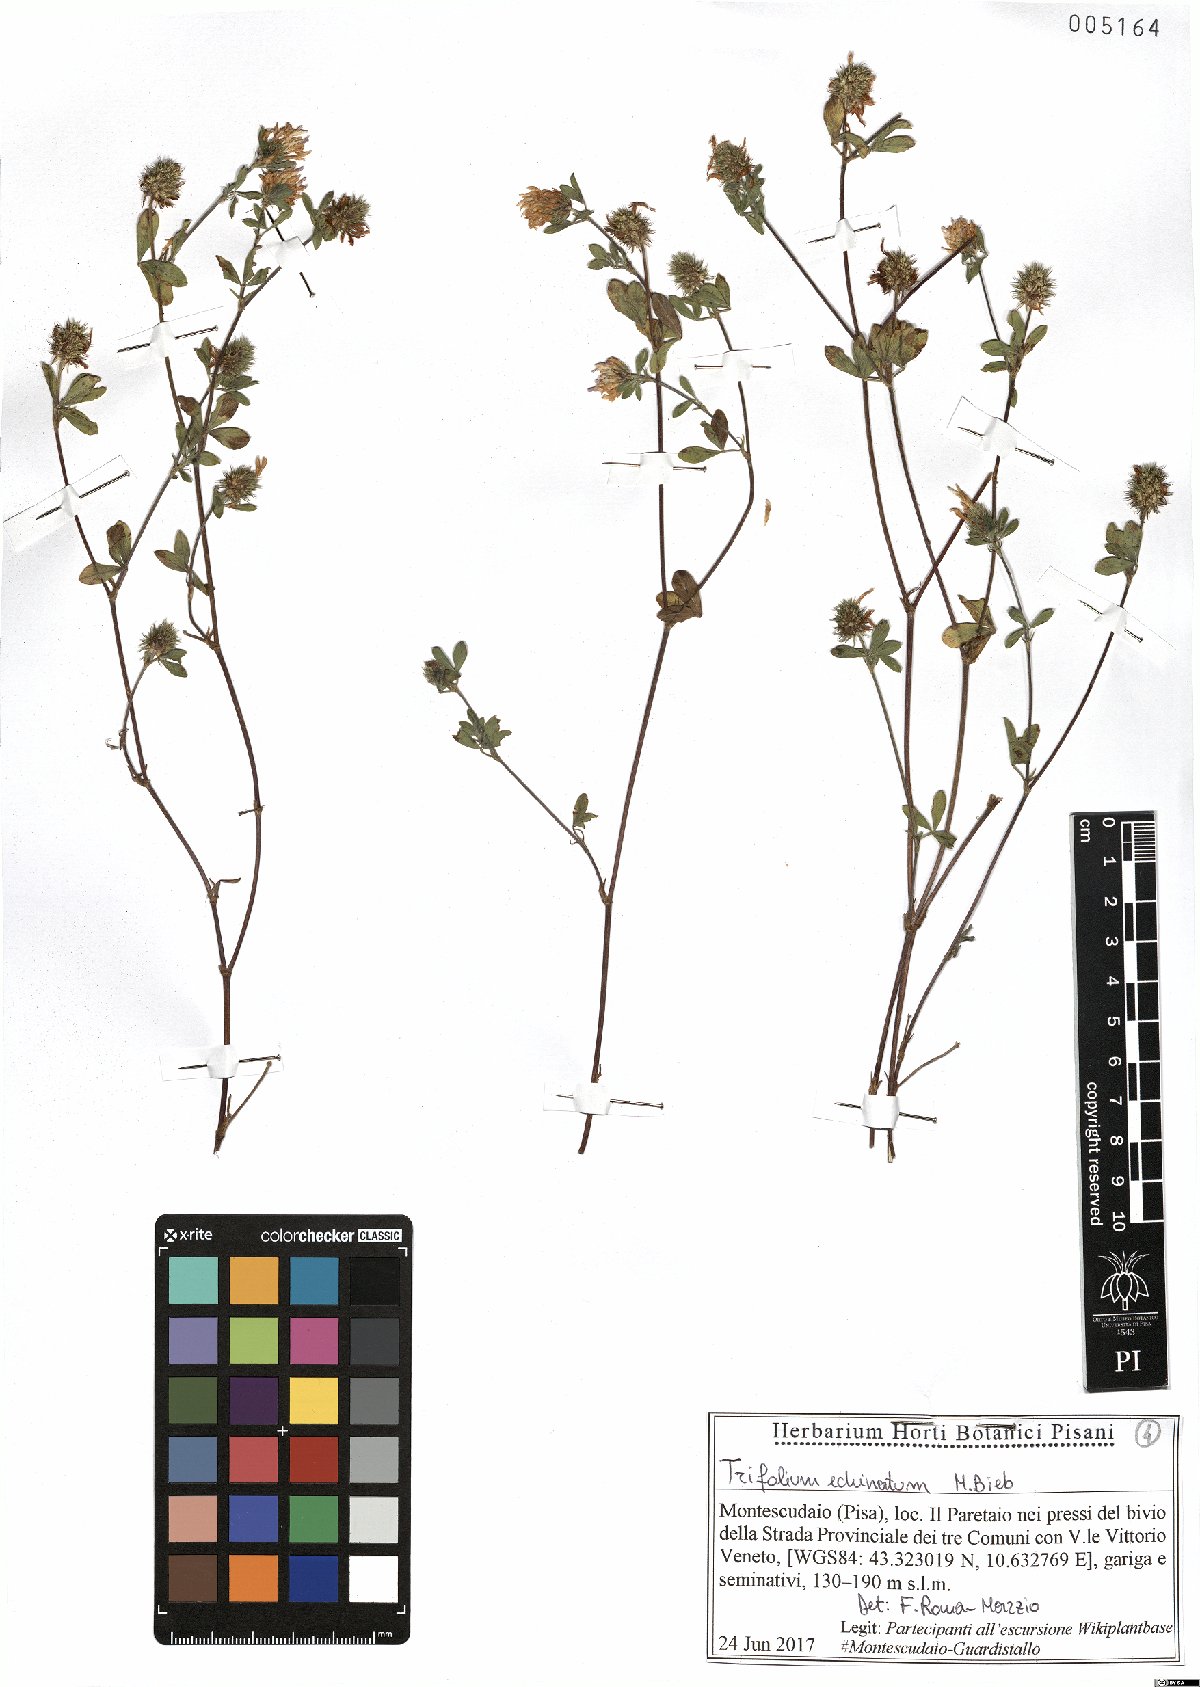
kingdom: Plantae
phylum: Tracheophyta
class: Magnoliopsida
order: Fabales
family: Fabaceae
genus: Trifolium
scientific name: Trifolium echinatum
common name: Hedgehog clover
